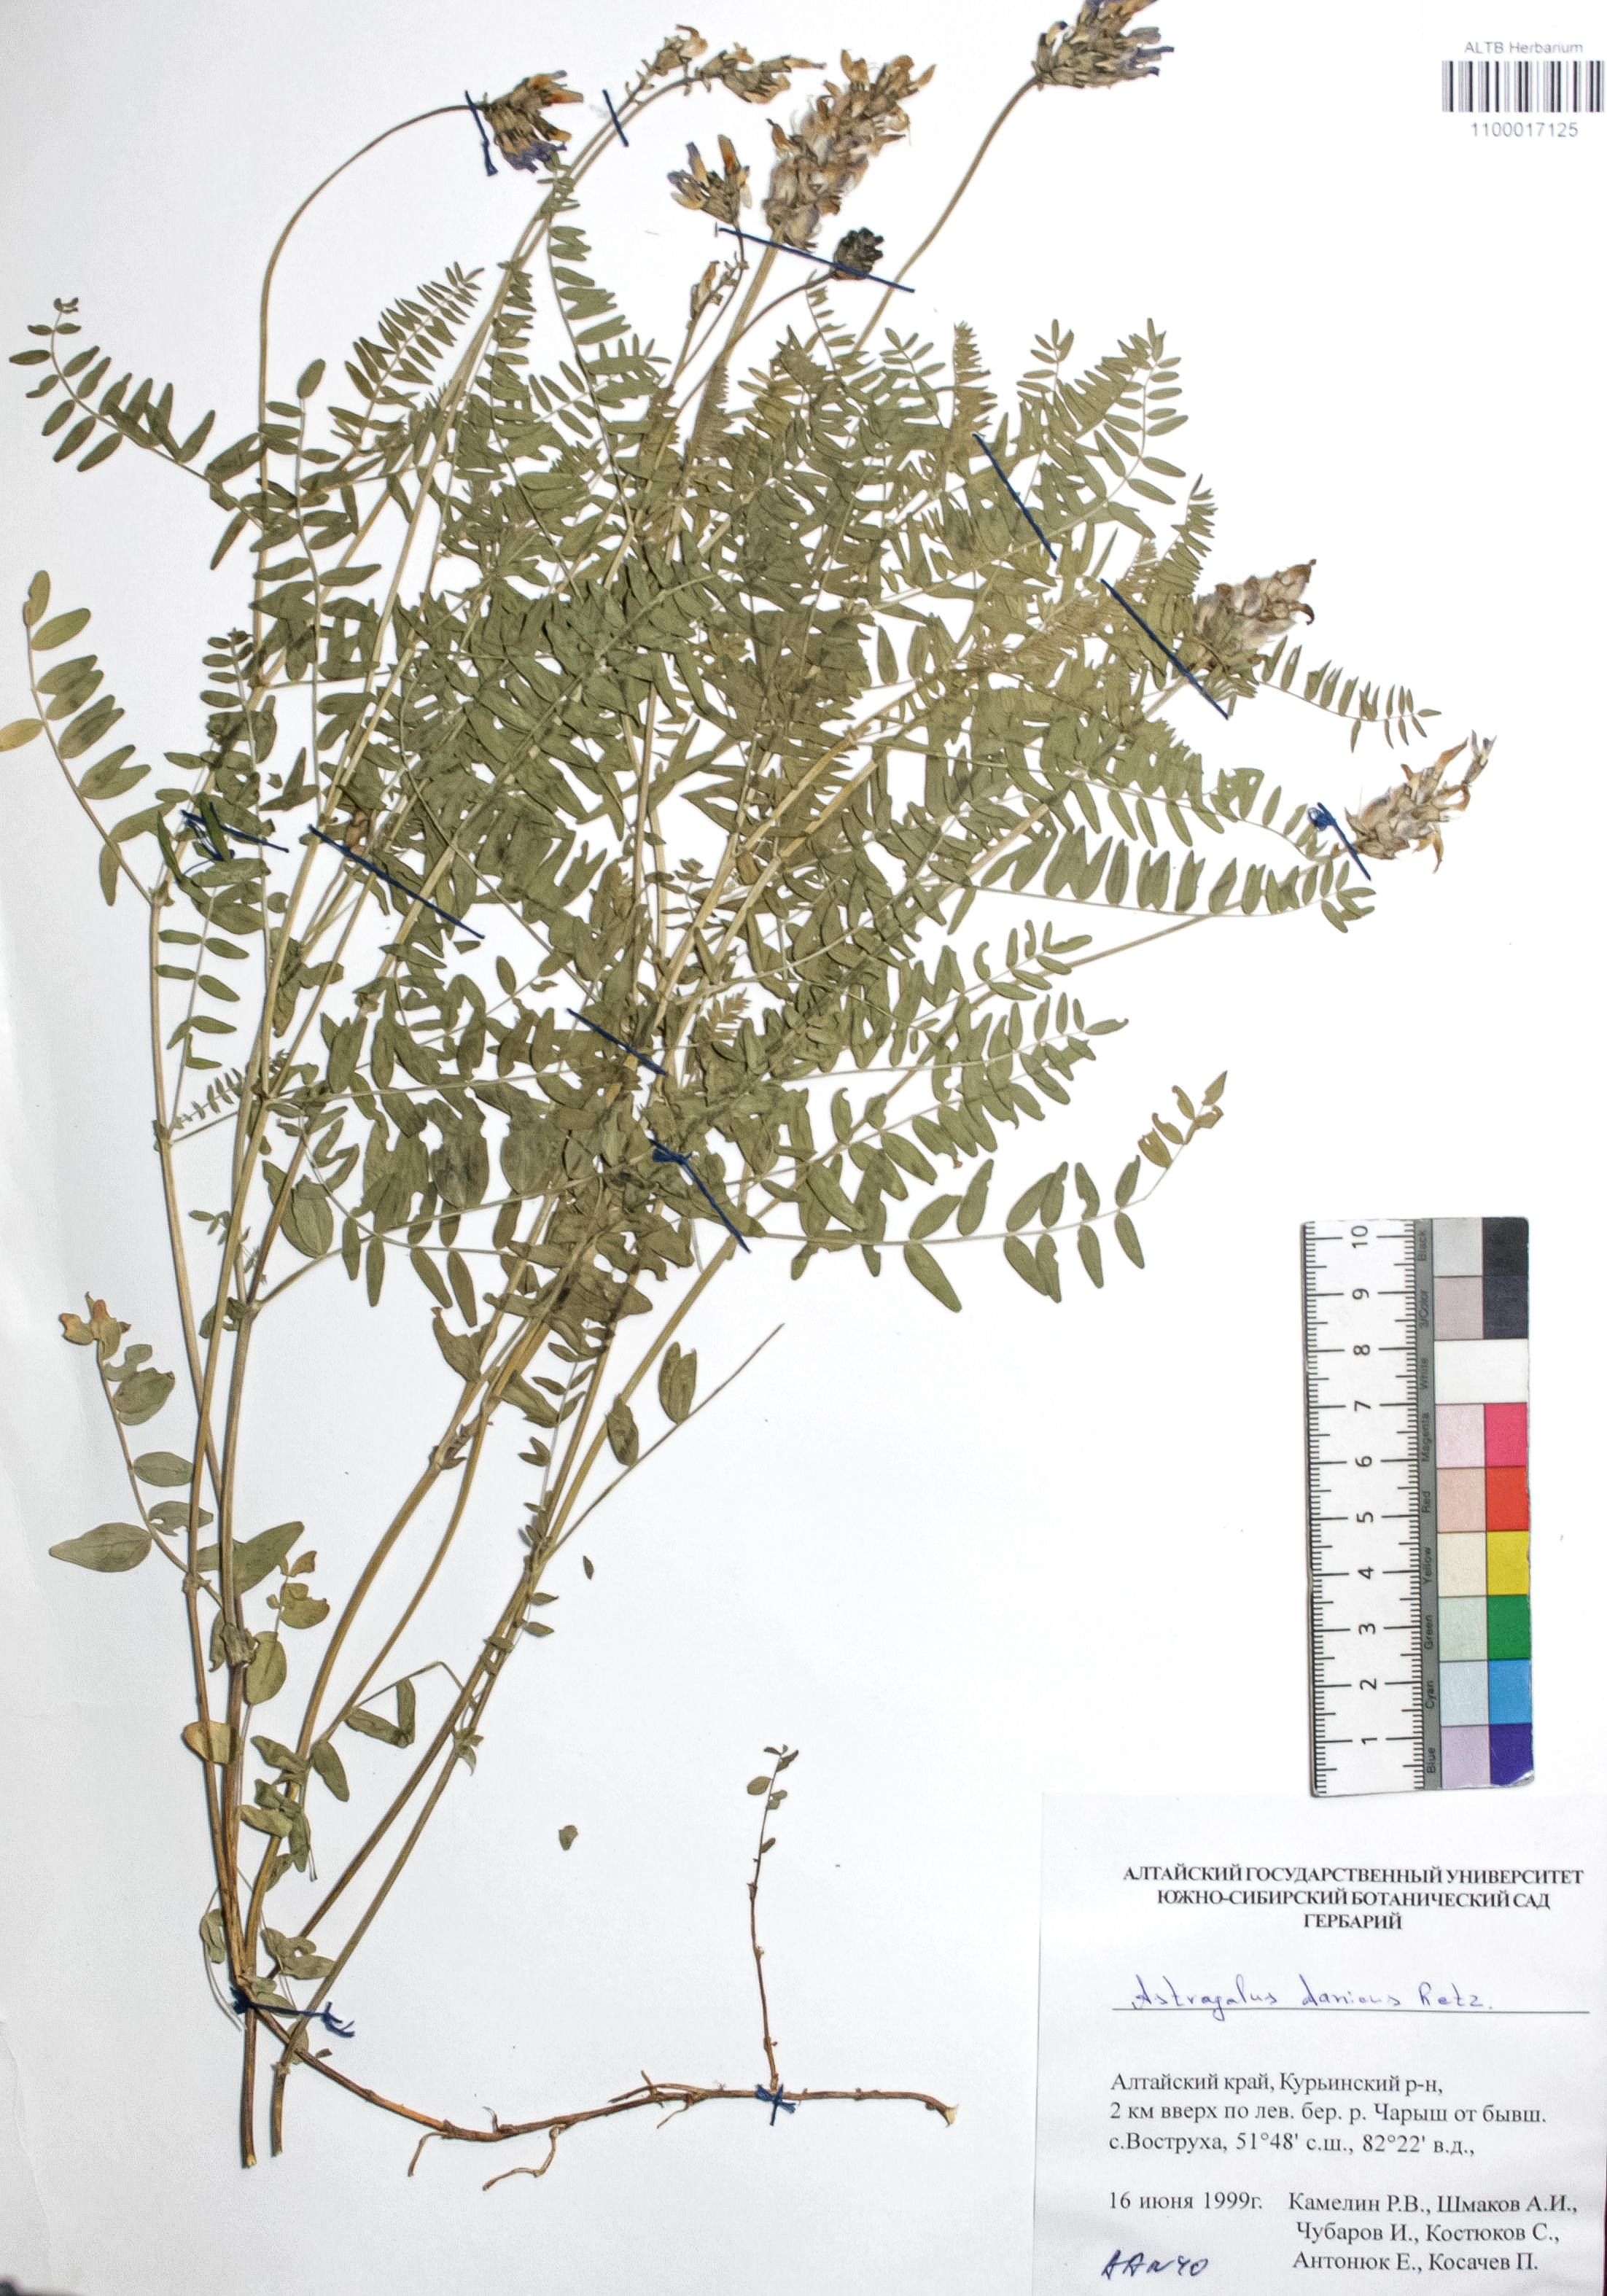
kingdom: Plantae
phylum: Tracheophyta
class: Magnoliopsida
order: Fabales
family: Fabaceae
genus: Astragalus
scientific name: Astragalus danicus
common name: Purple milk-vetch
